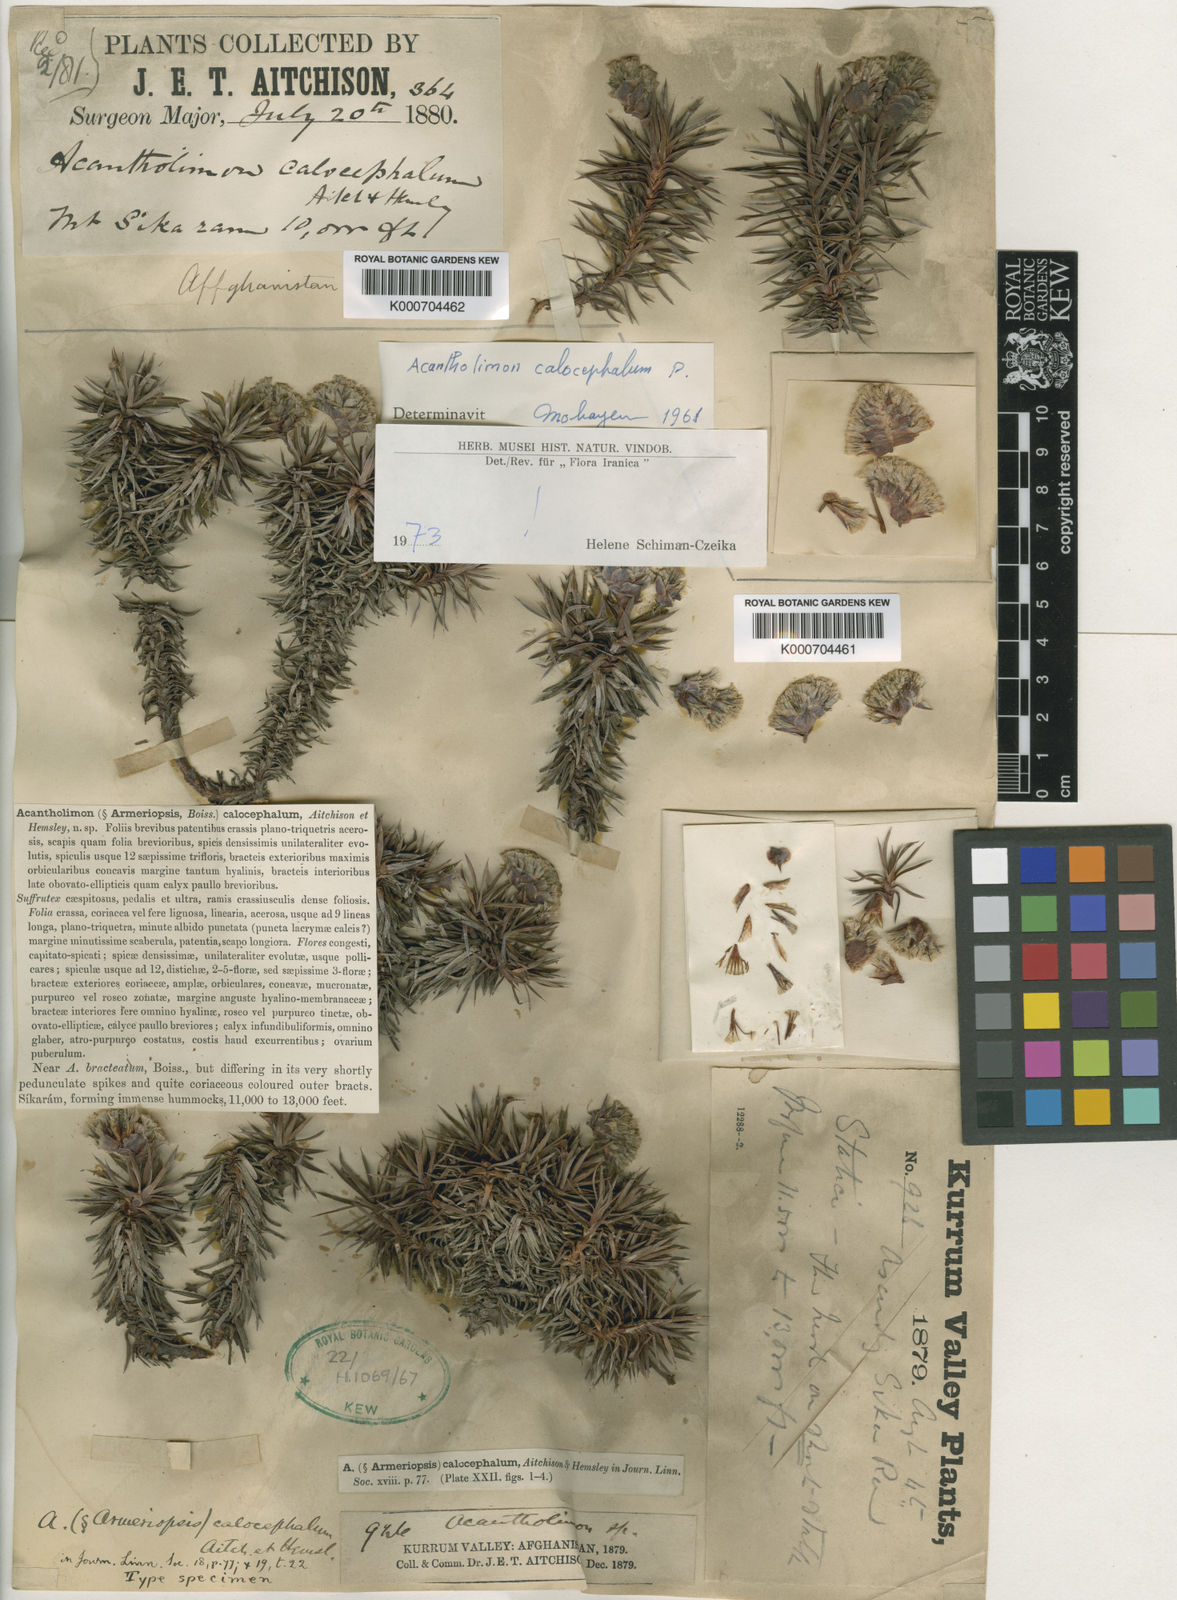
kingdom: Plantae
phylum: Tracheophyta
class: Magnoliopsida
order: Caryophyllales
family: Plumbaginaceae
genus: Acantholimon
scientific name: Acantholimon calocephalum
